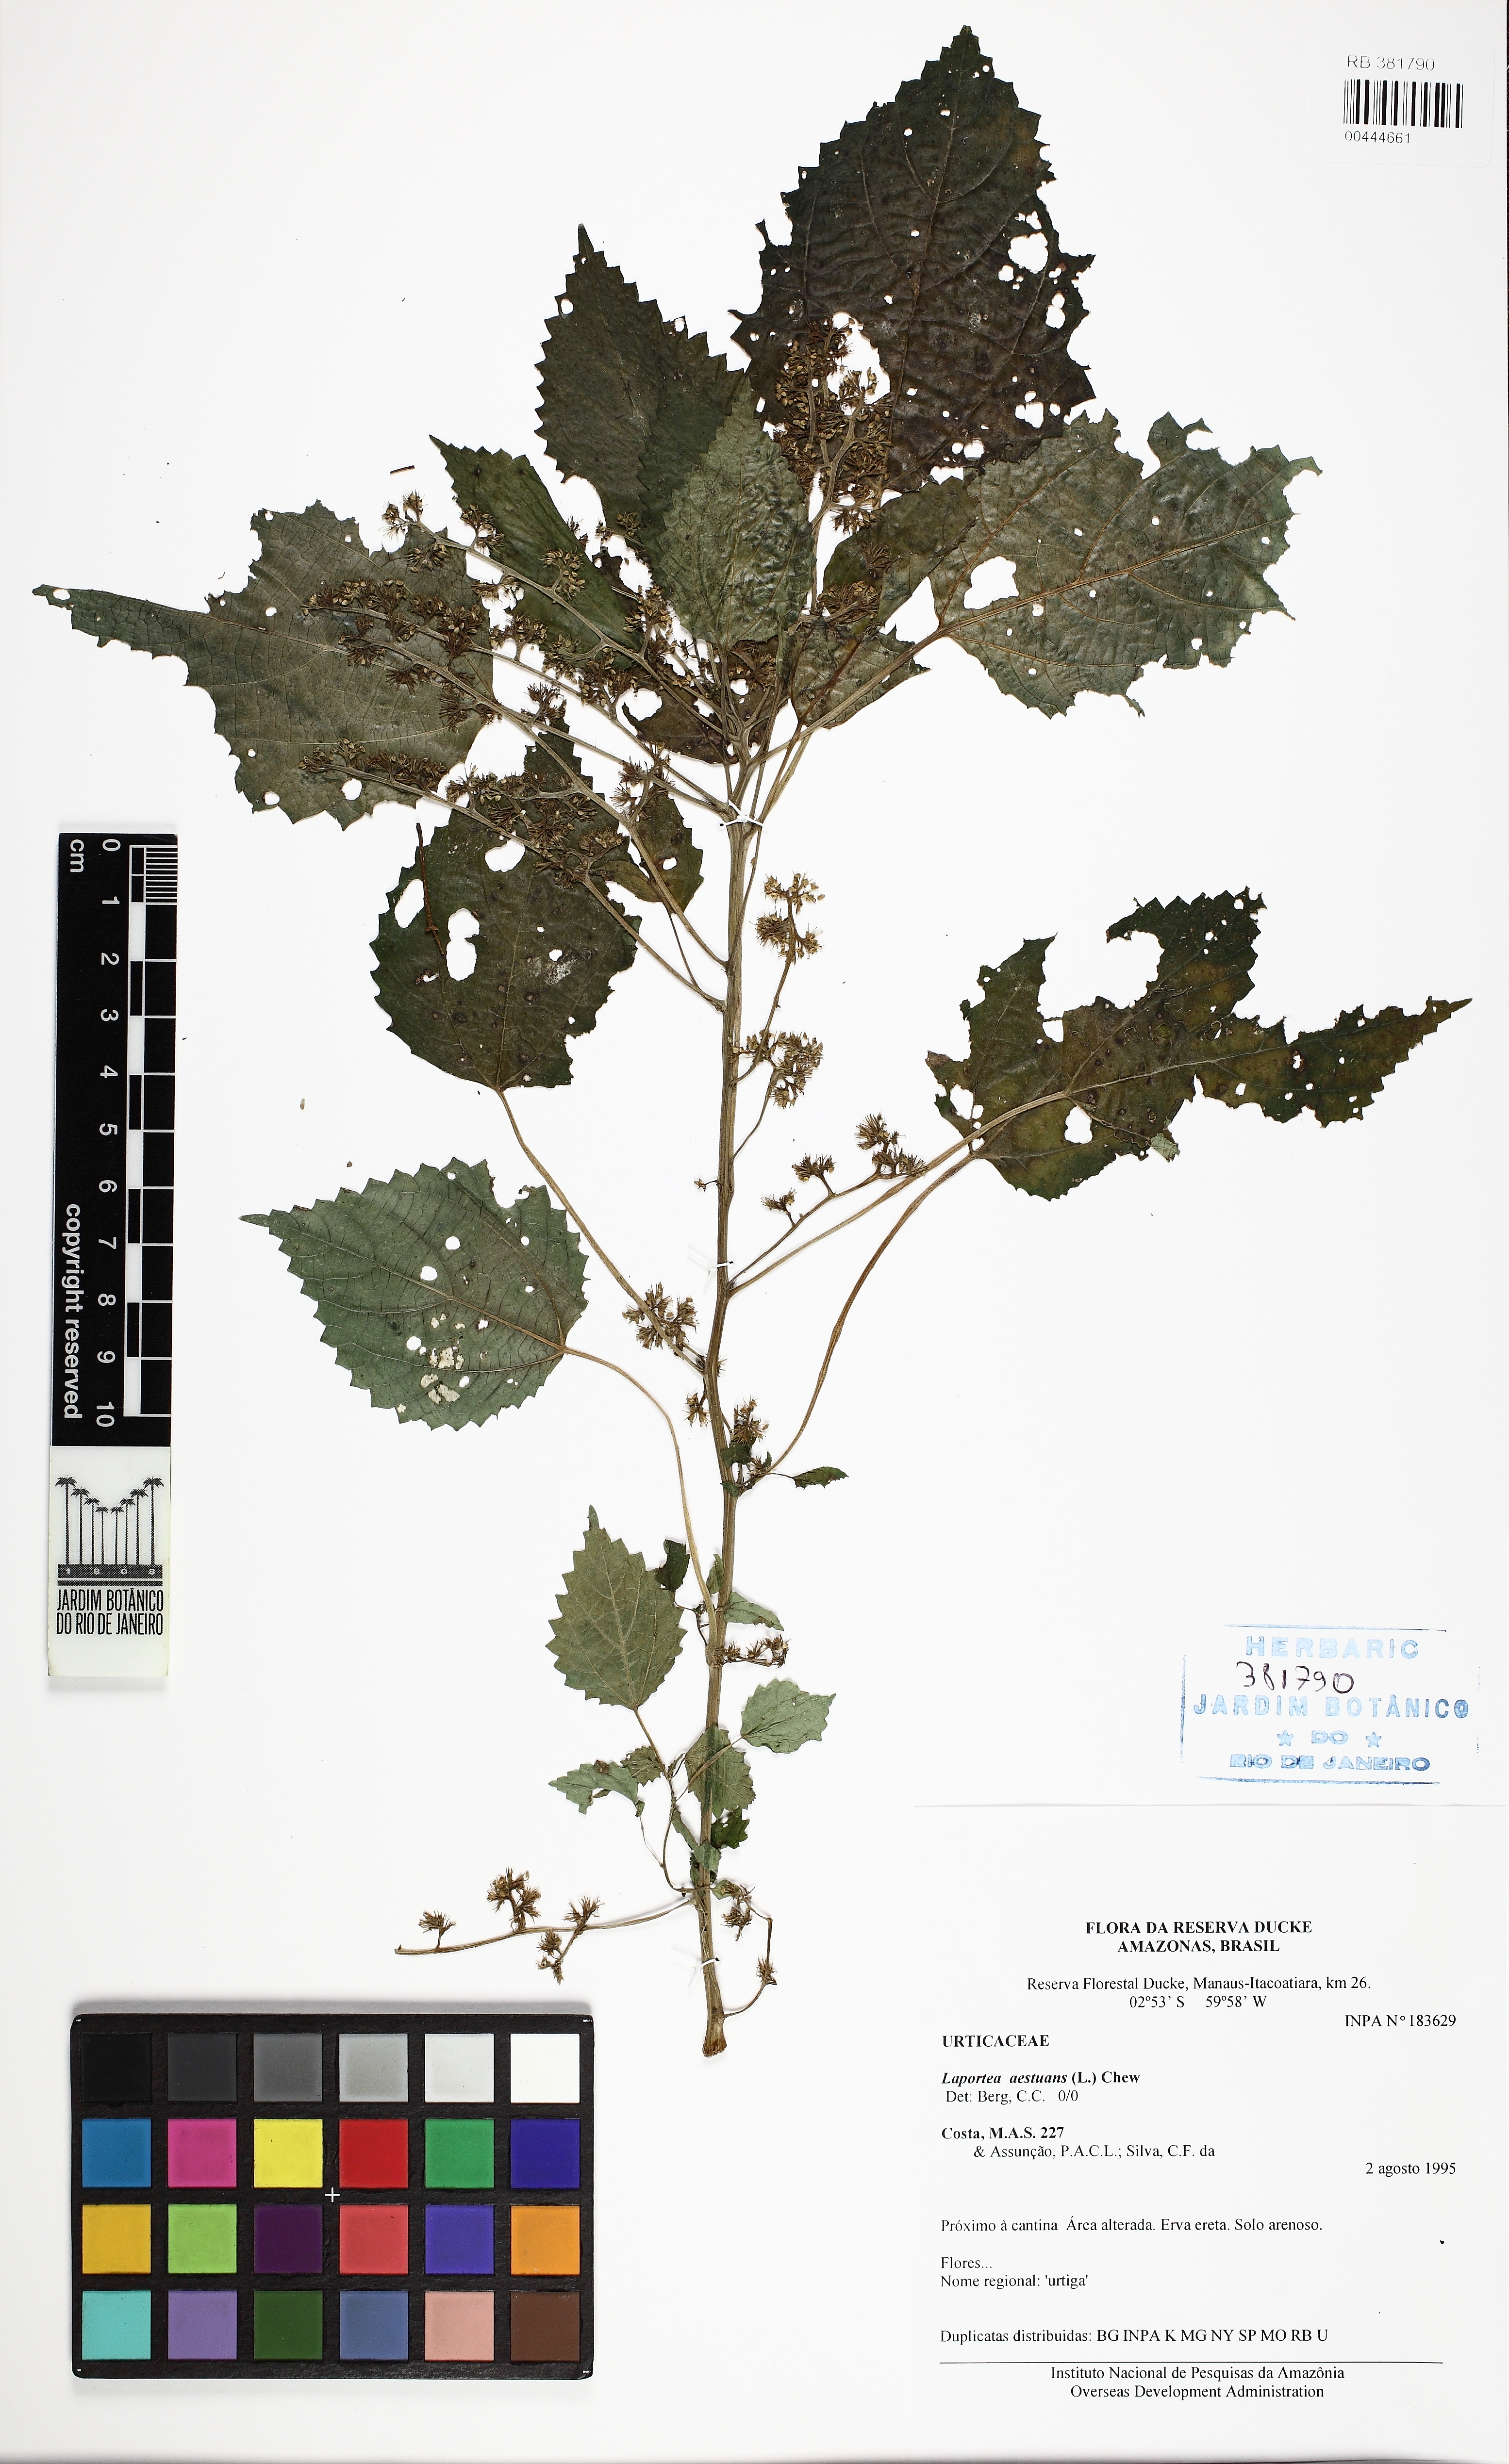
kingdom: Plantae
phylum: Tracheophyta
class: Magnoliopsida
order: Rosales
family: Urticaceae
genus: Laportea
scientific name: Laportea aestuans
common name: West indian woodnettle
